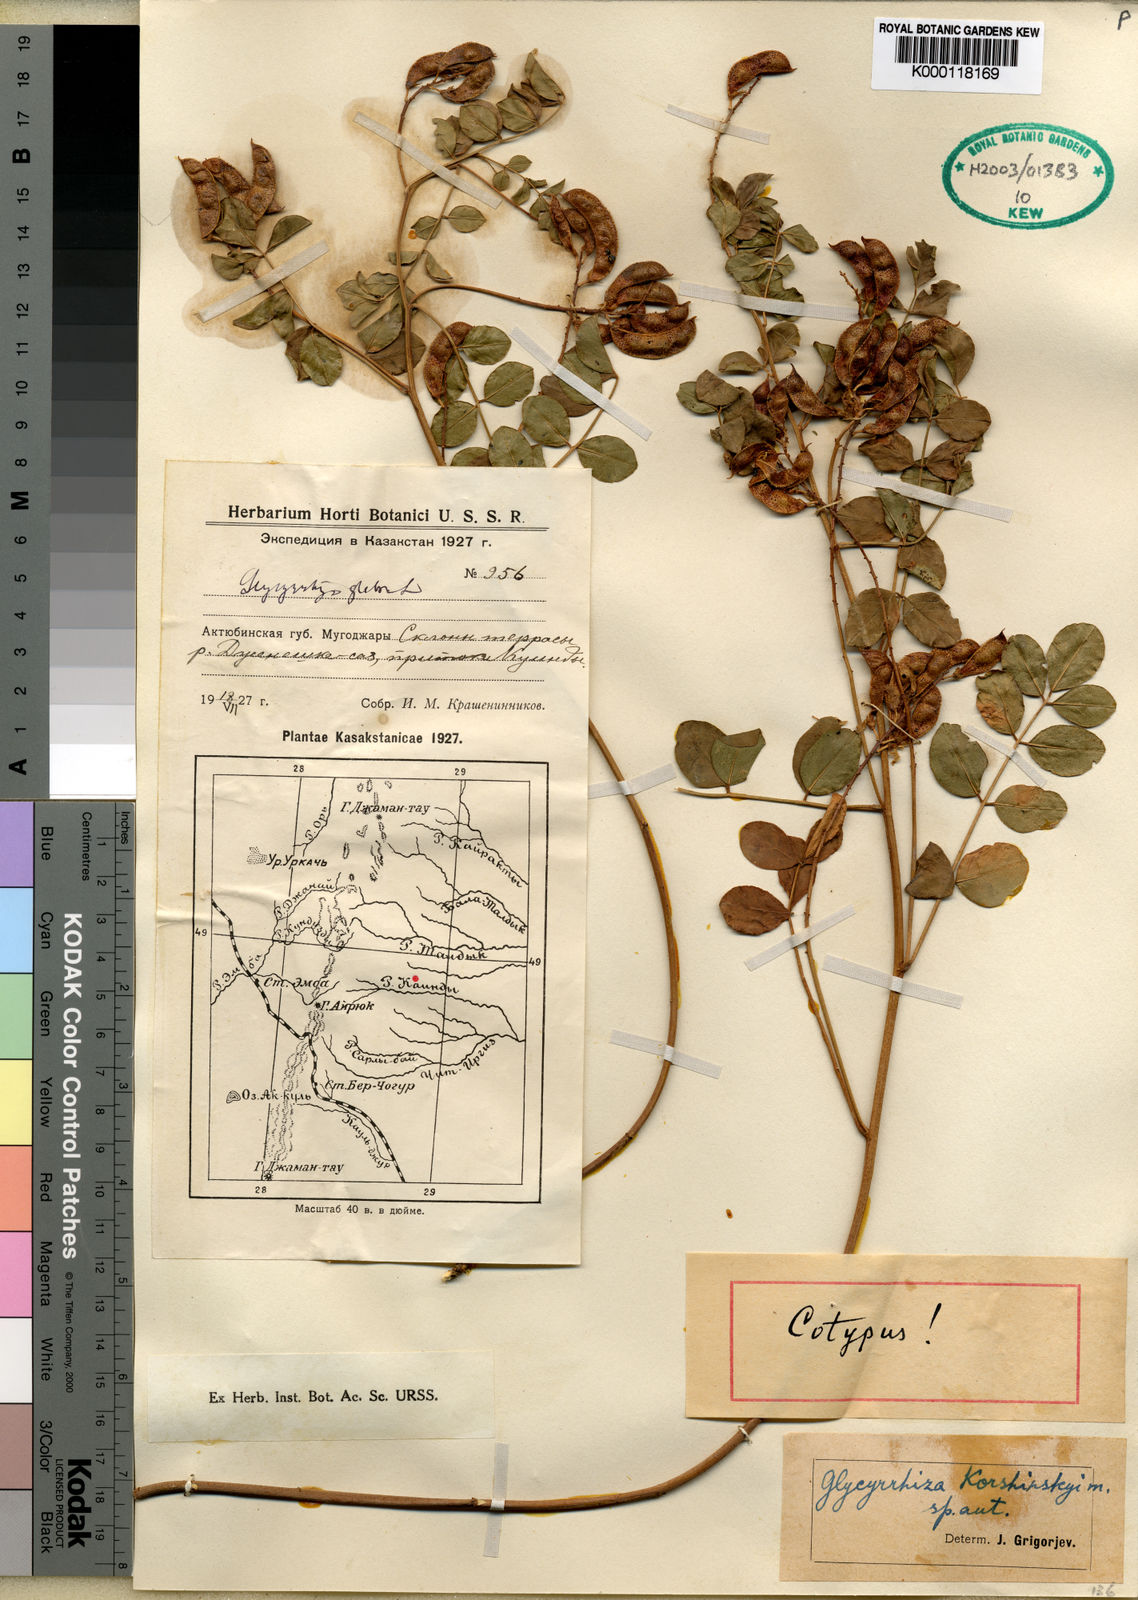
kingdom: Plantae
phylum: Tracheophyta
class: Magnoliopsida
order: Fabales
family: Fabaceae
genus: Glycyrrhiza
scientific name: Glycyrrhiza glabra
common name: Liquorice
